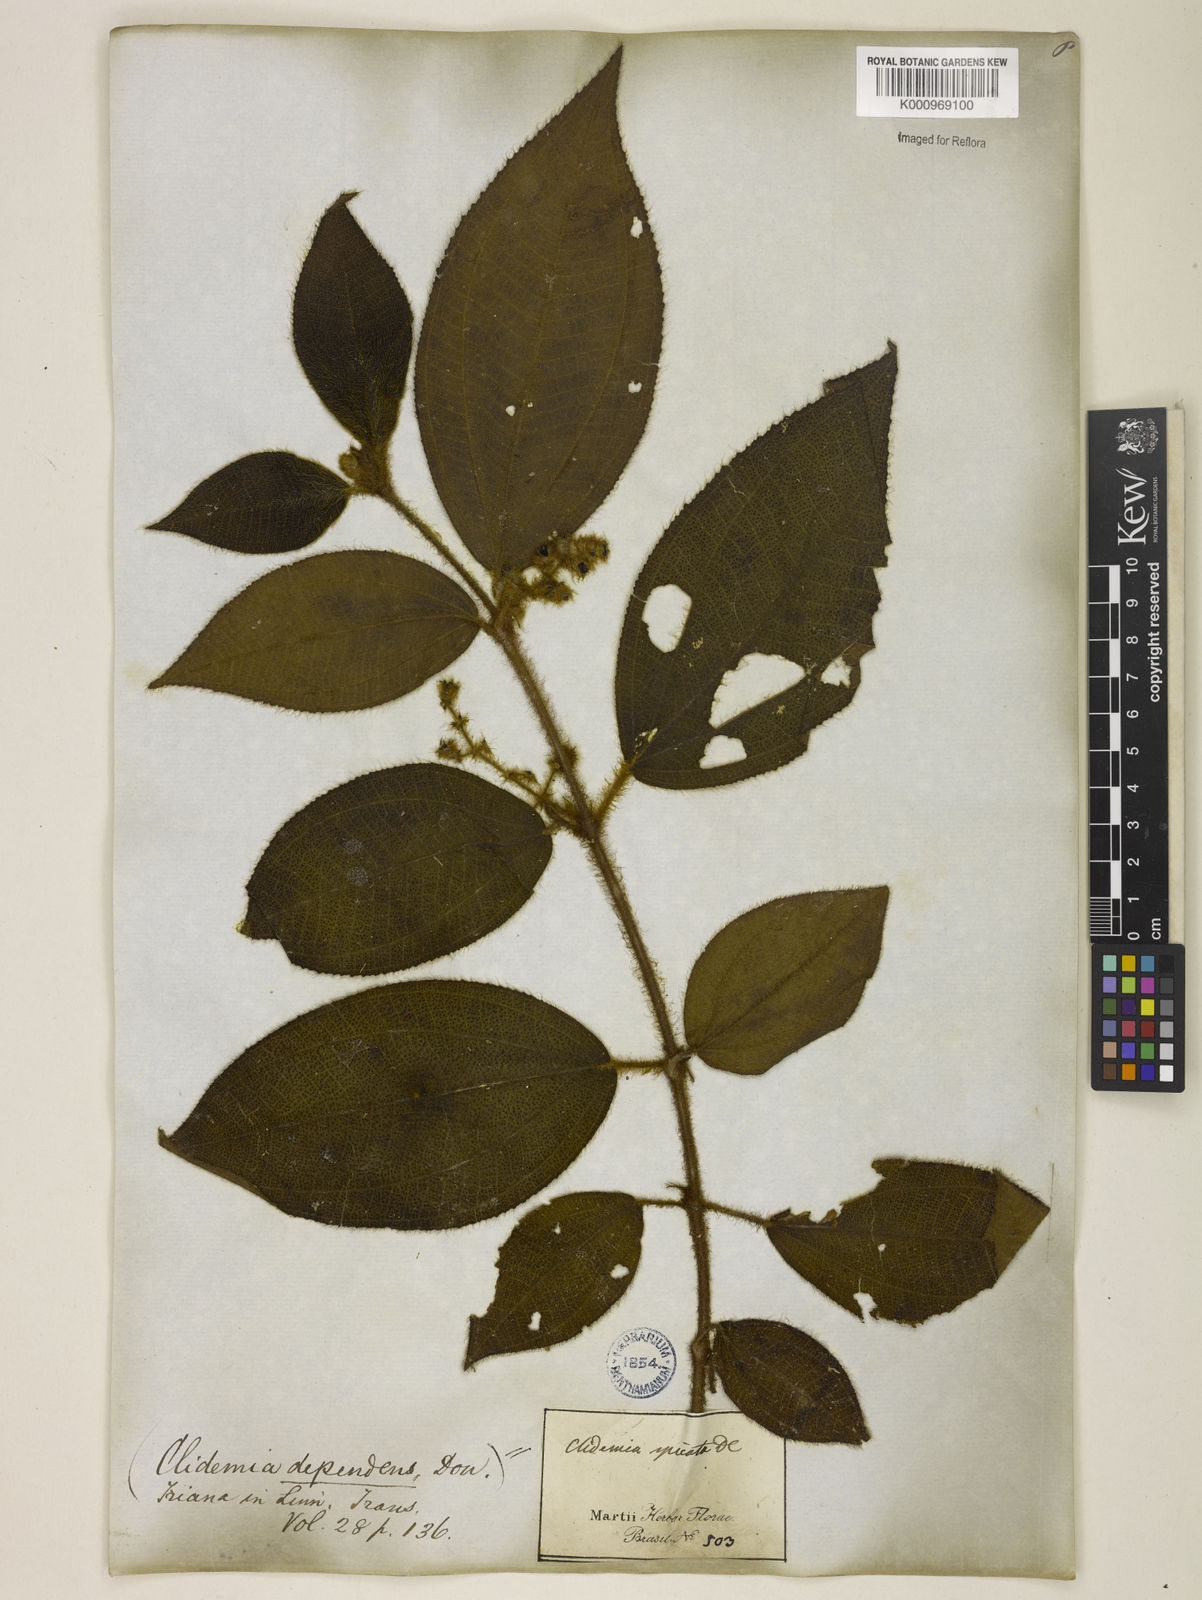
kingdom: Plantae
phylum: Tracheophyta
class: Magnoliopsida
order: Myrtales
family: Melastomataceae
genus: Miconia
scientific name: Miconia dependens
